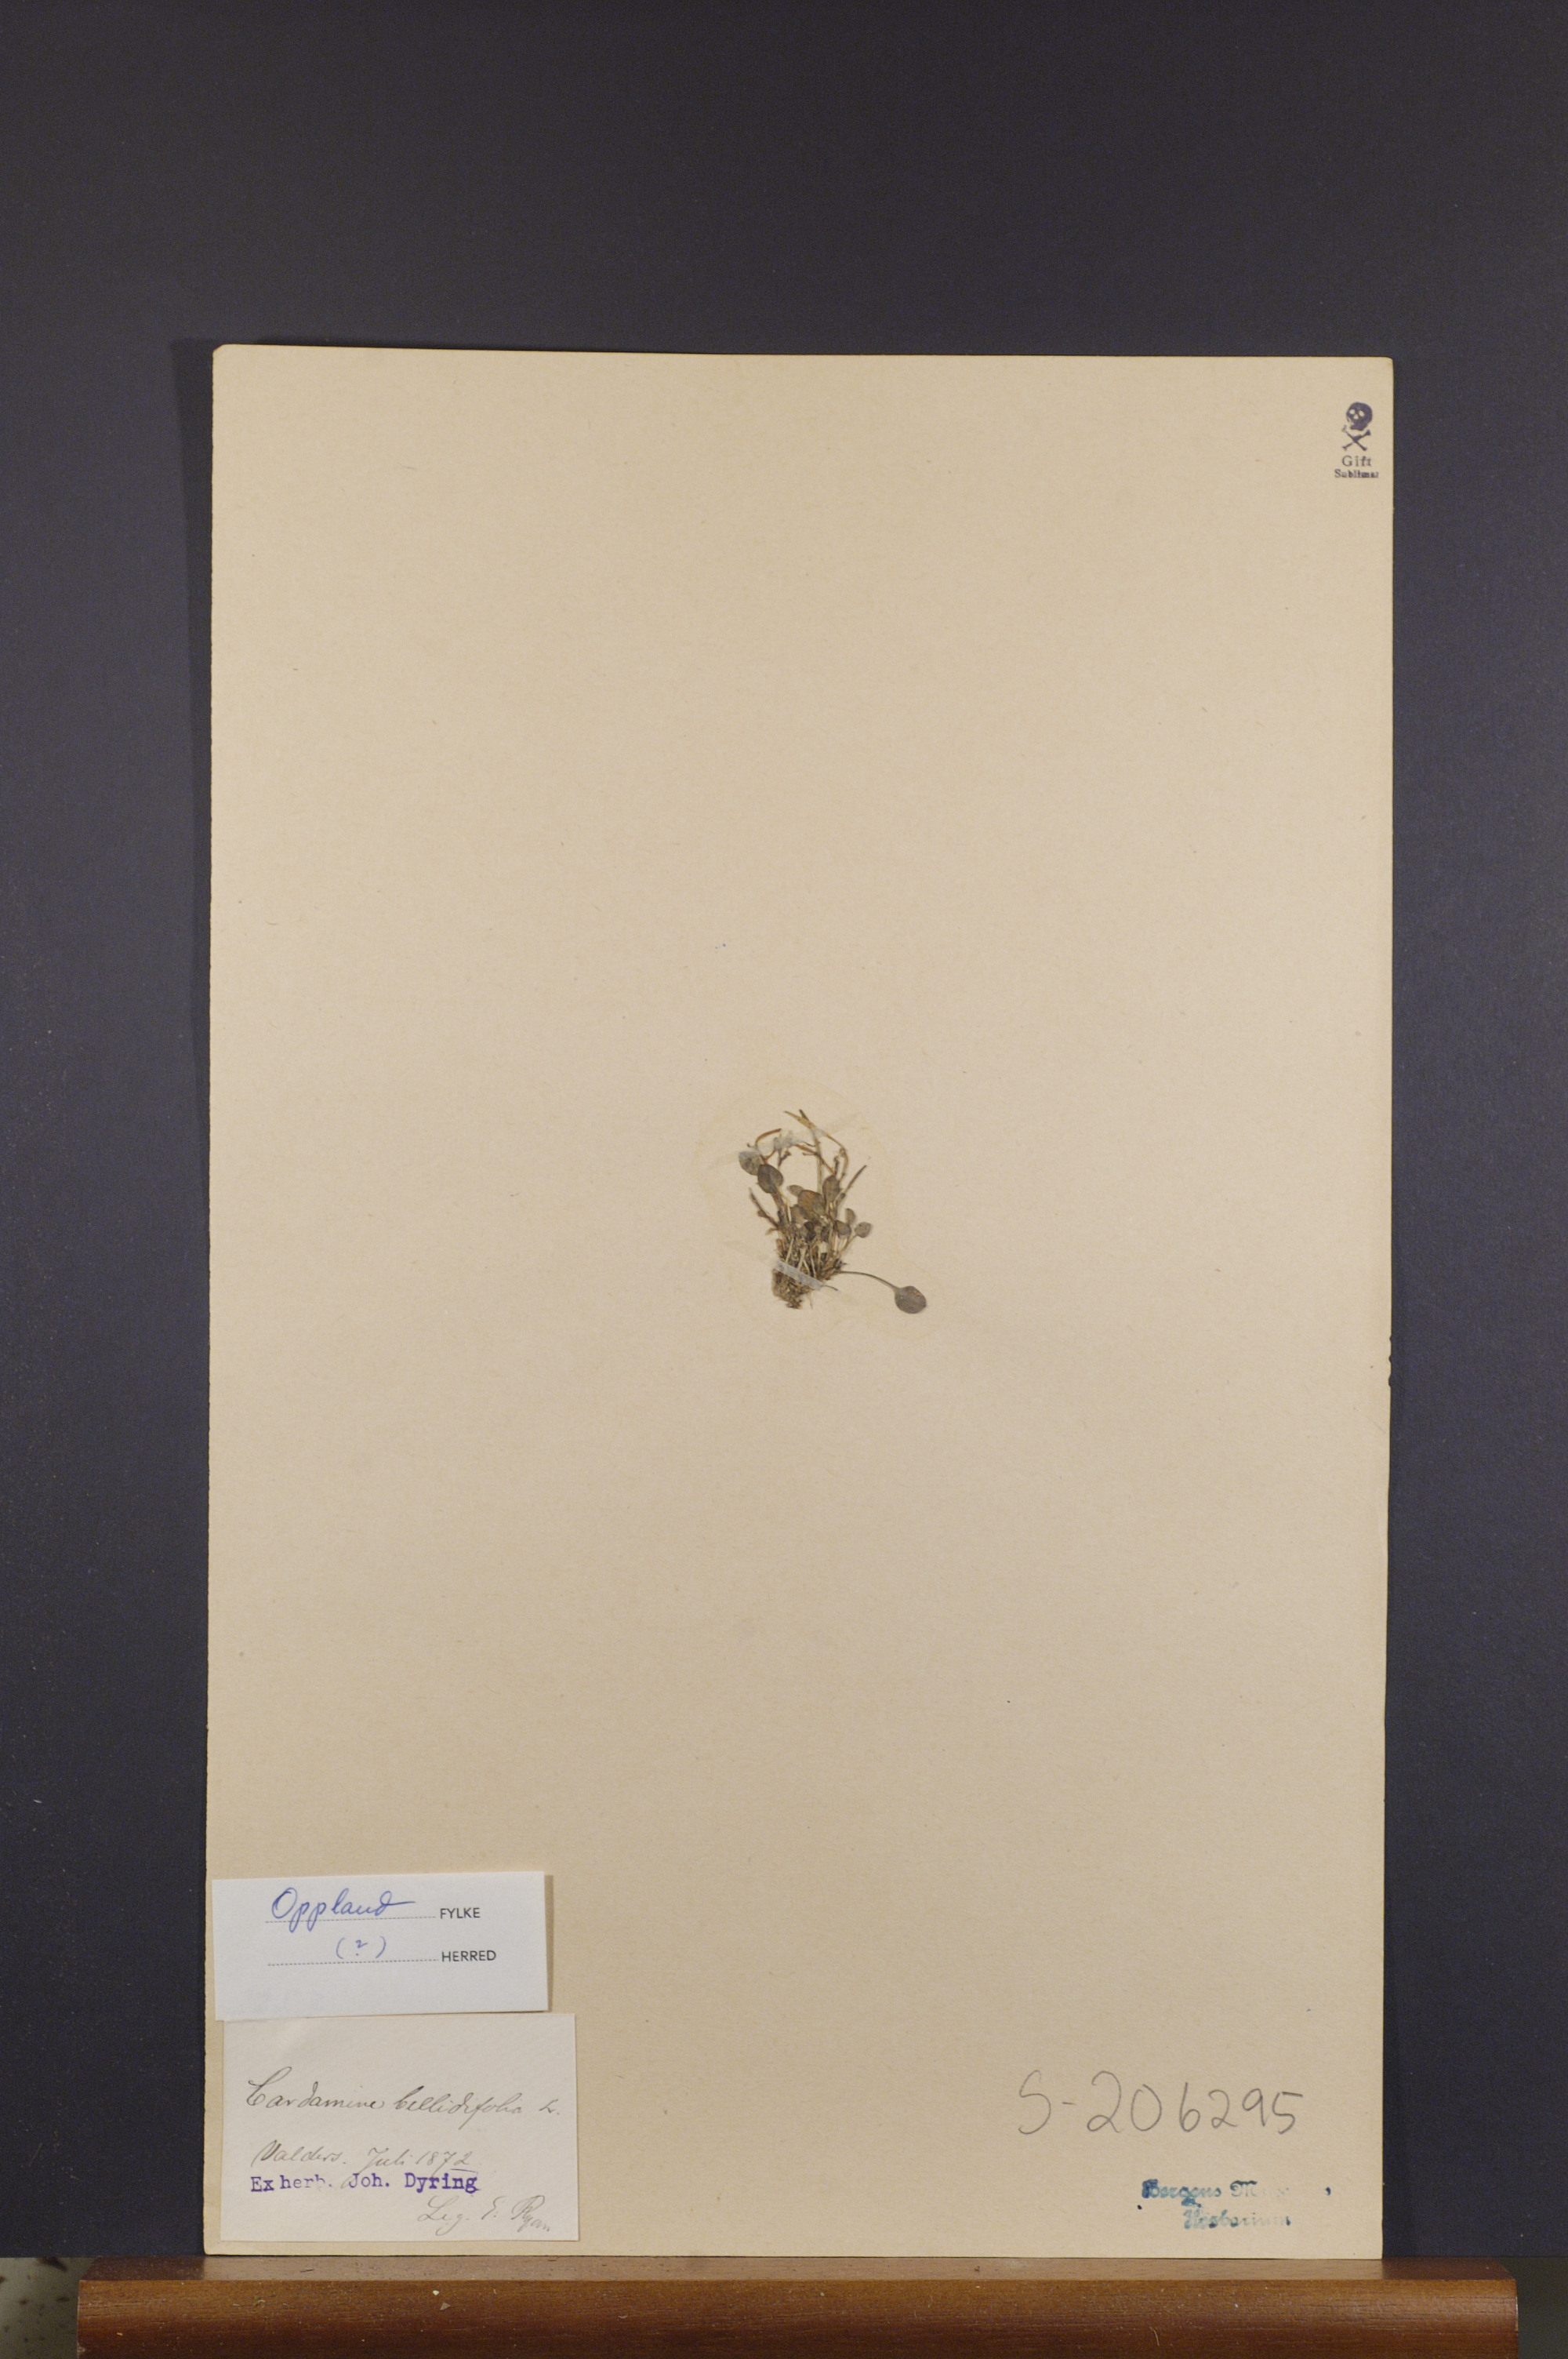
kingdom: Plantae
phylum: Tracheophyta
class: Magnoliopsida
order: Brassicales
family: Brassicaceae
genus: Cardamine
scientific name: Cardamine bellidifolia
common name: Alpine bittercress
